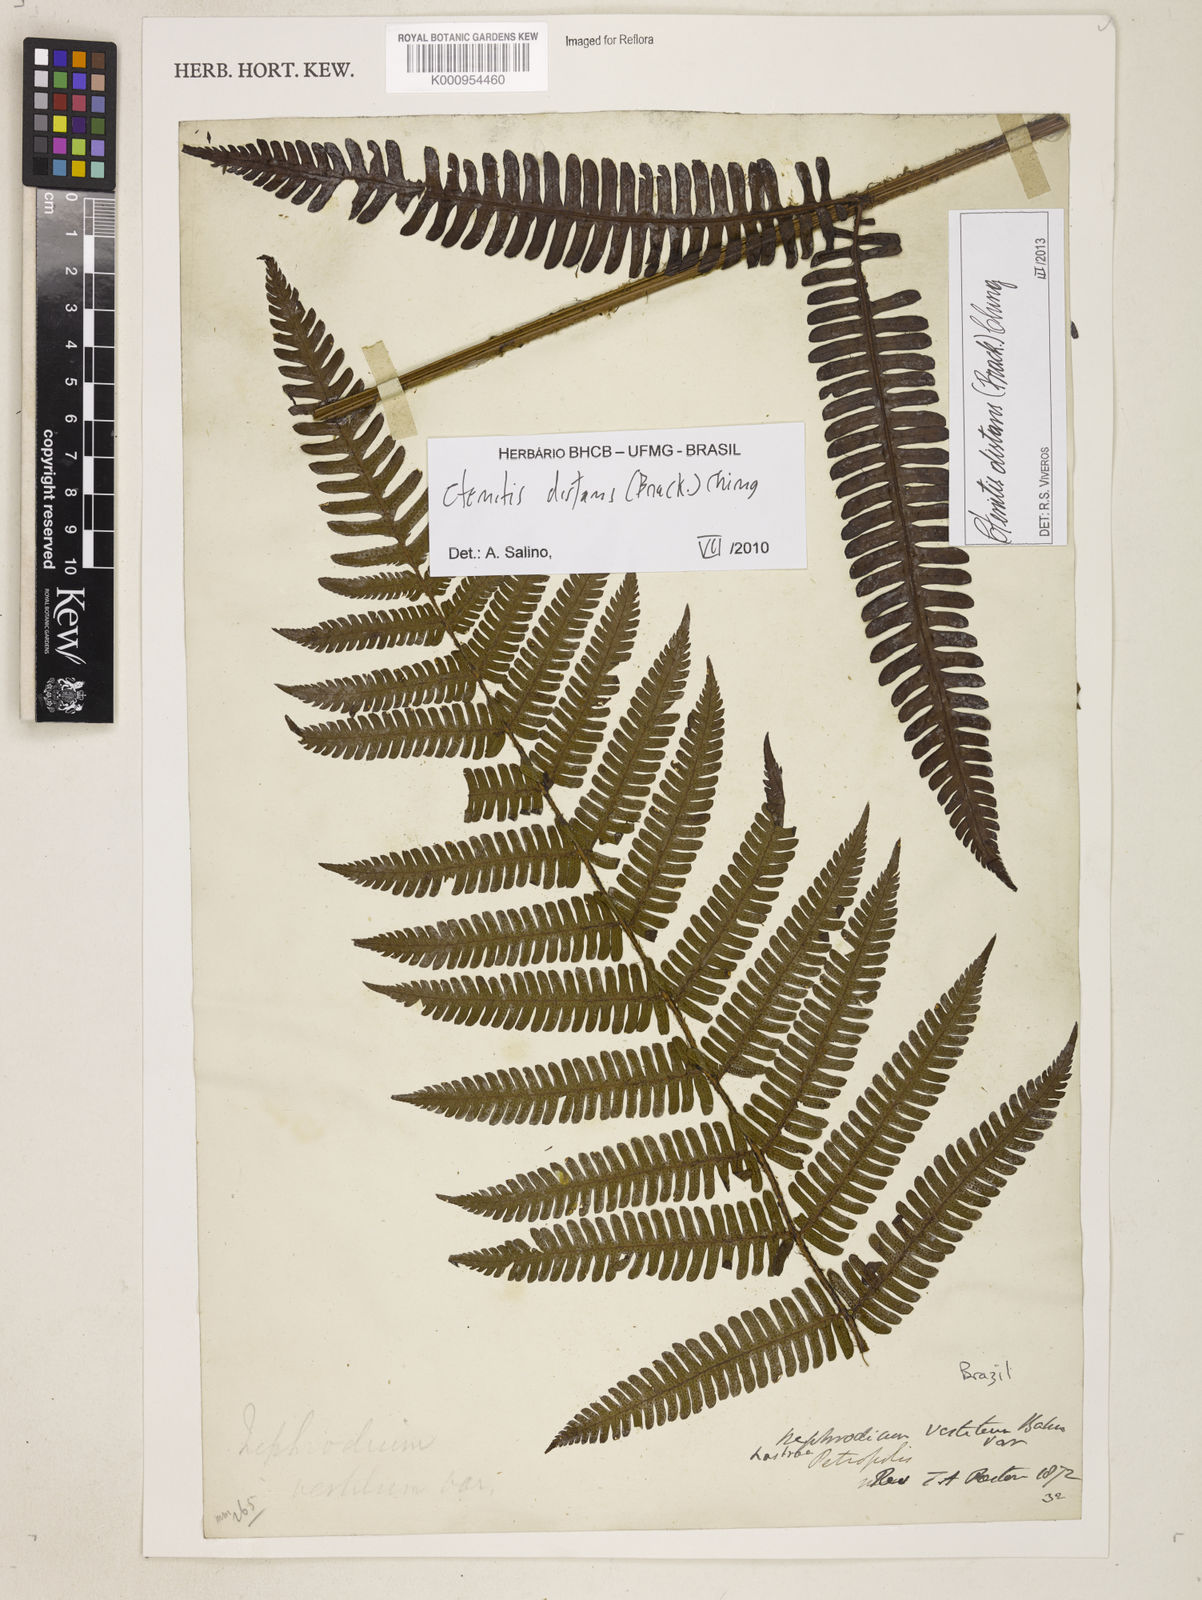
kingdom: Plantae
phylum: Tracheophyta
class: Polypodiopsida
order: Polypodiales
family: Dryopteridaceae
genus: Ctenitis
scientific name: Ctenitis distans
